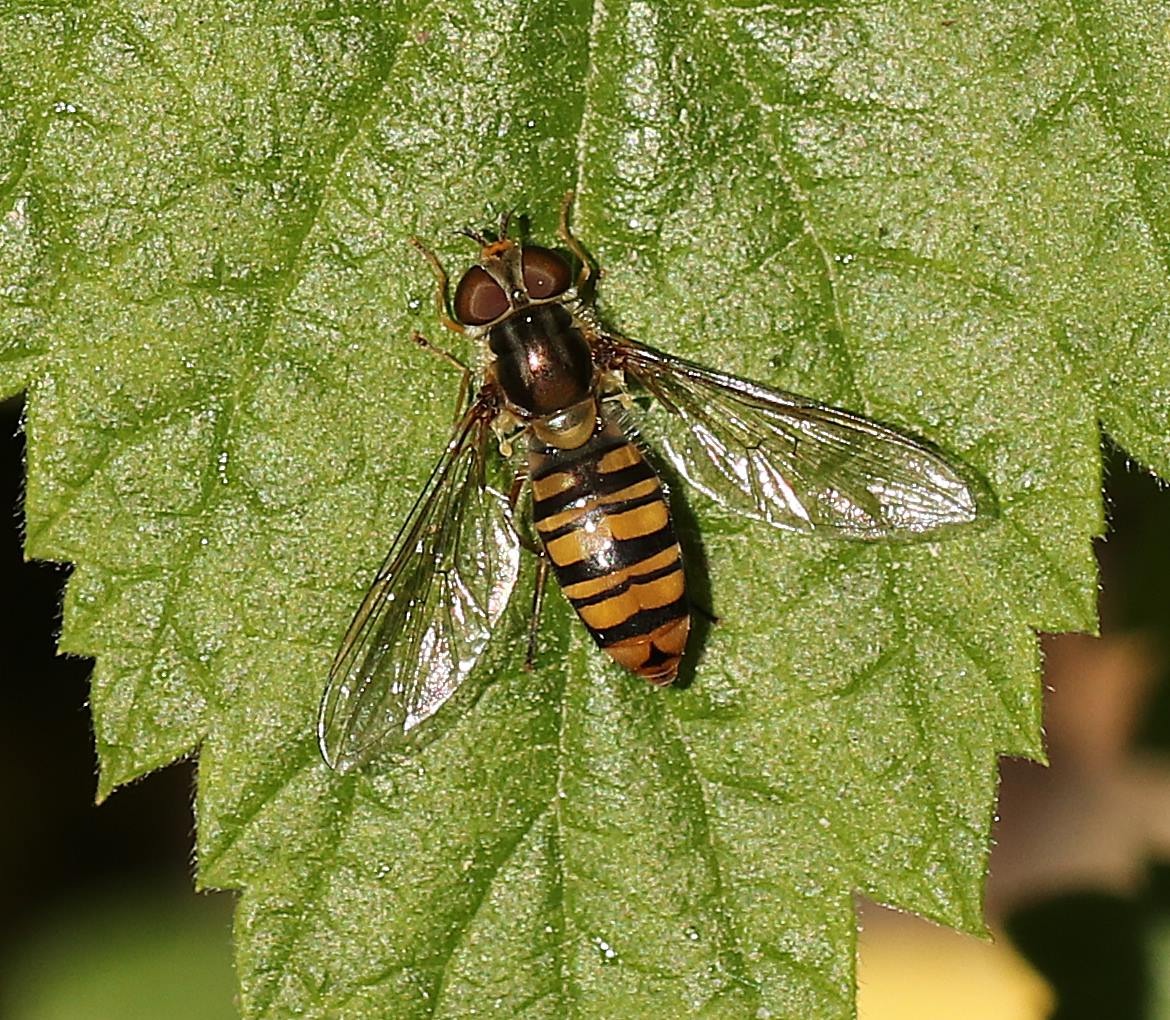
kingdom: Animalia
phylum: Arthropoda
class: Insecta
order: Diptera
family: Syrphidae
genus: Episyrphus
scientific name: Episyrphus balteatus
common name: Dobbeltbåndet svirreflue
